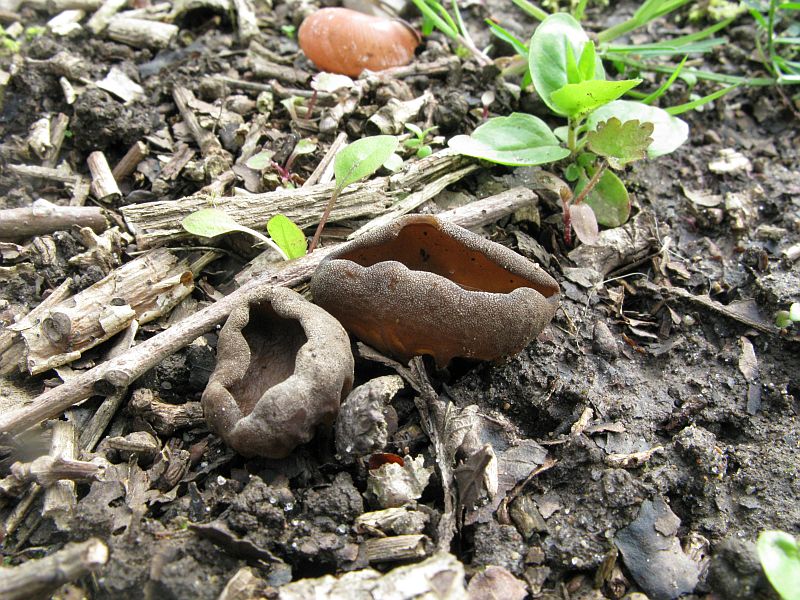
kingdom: Fungi
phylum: Ascomycota
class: Pezizomycetes
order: Pezizales
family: Helvellaceae
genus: Helvella
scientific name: Helvella acetabulum
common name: pokal-foldhat
